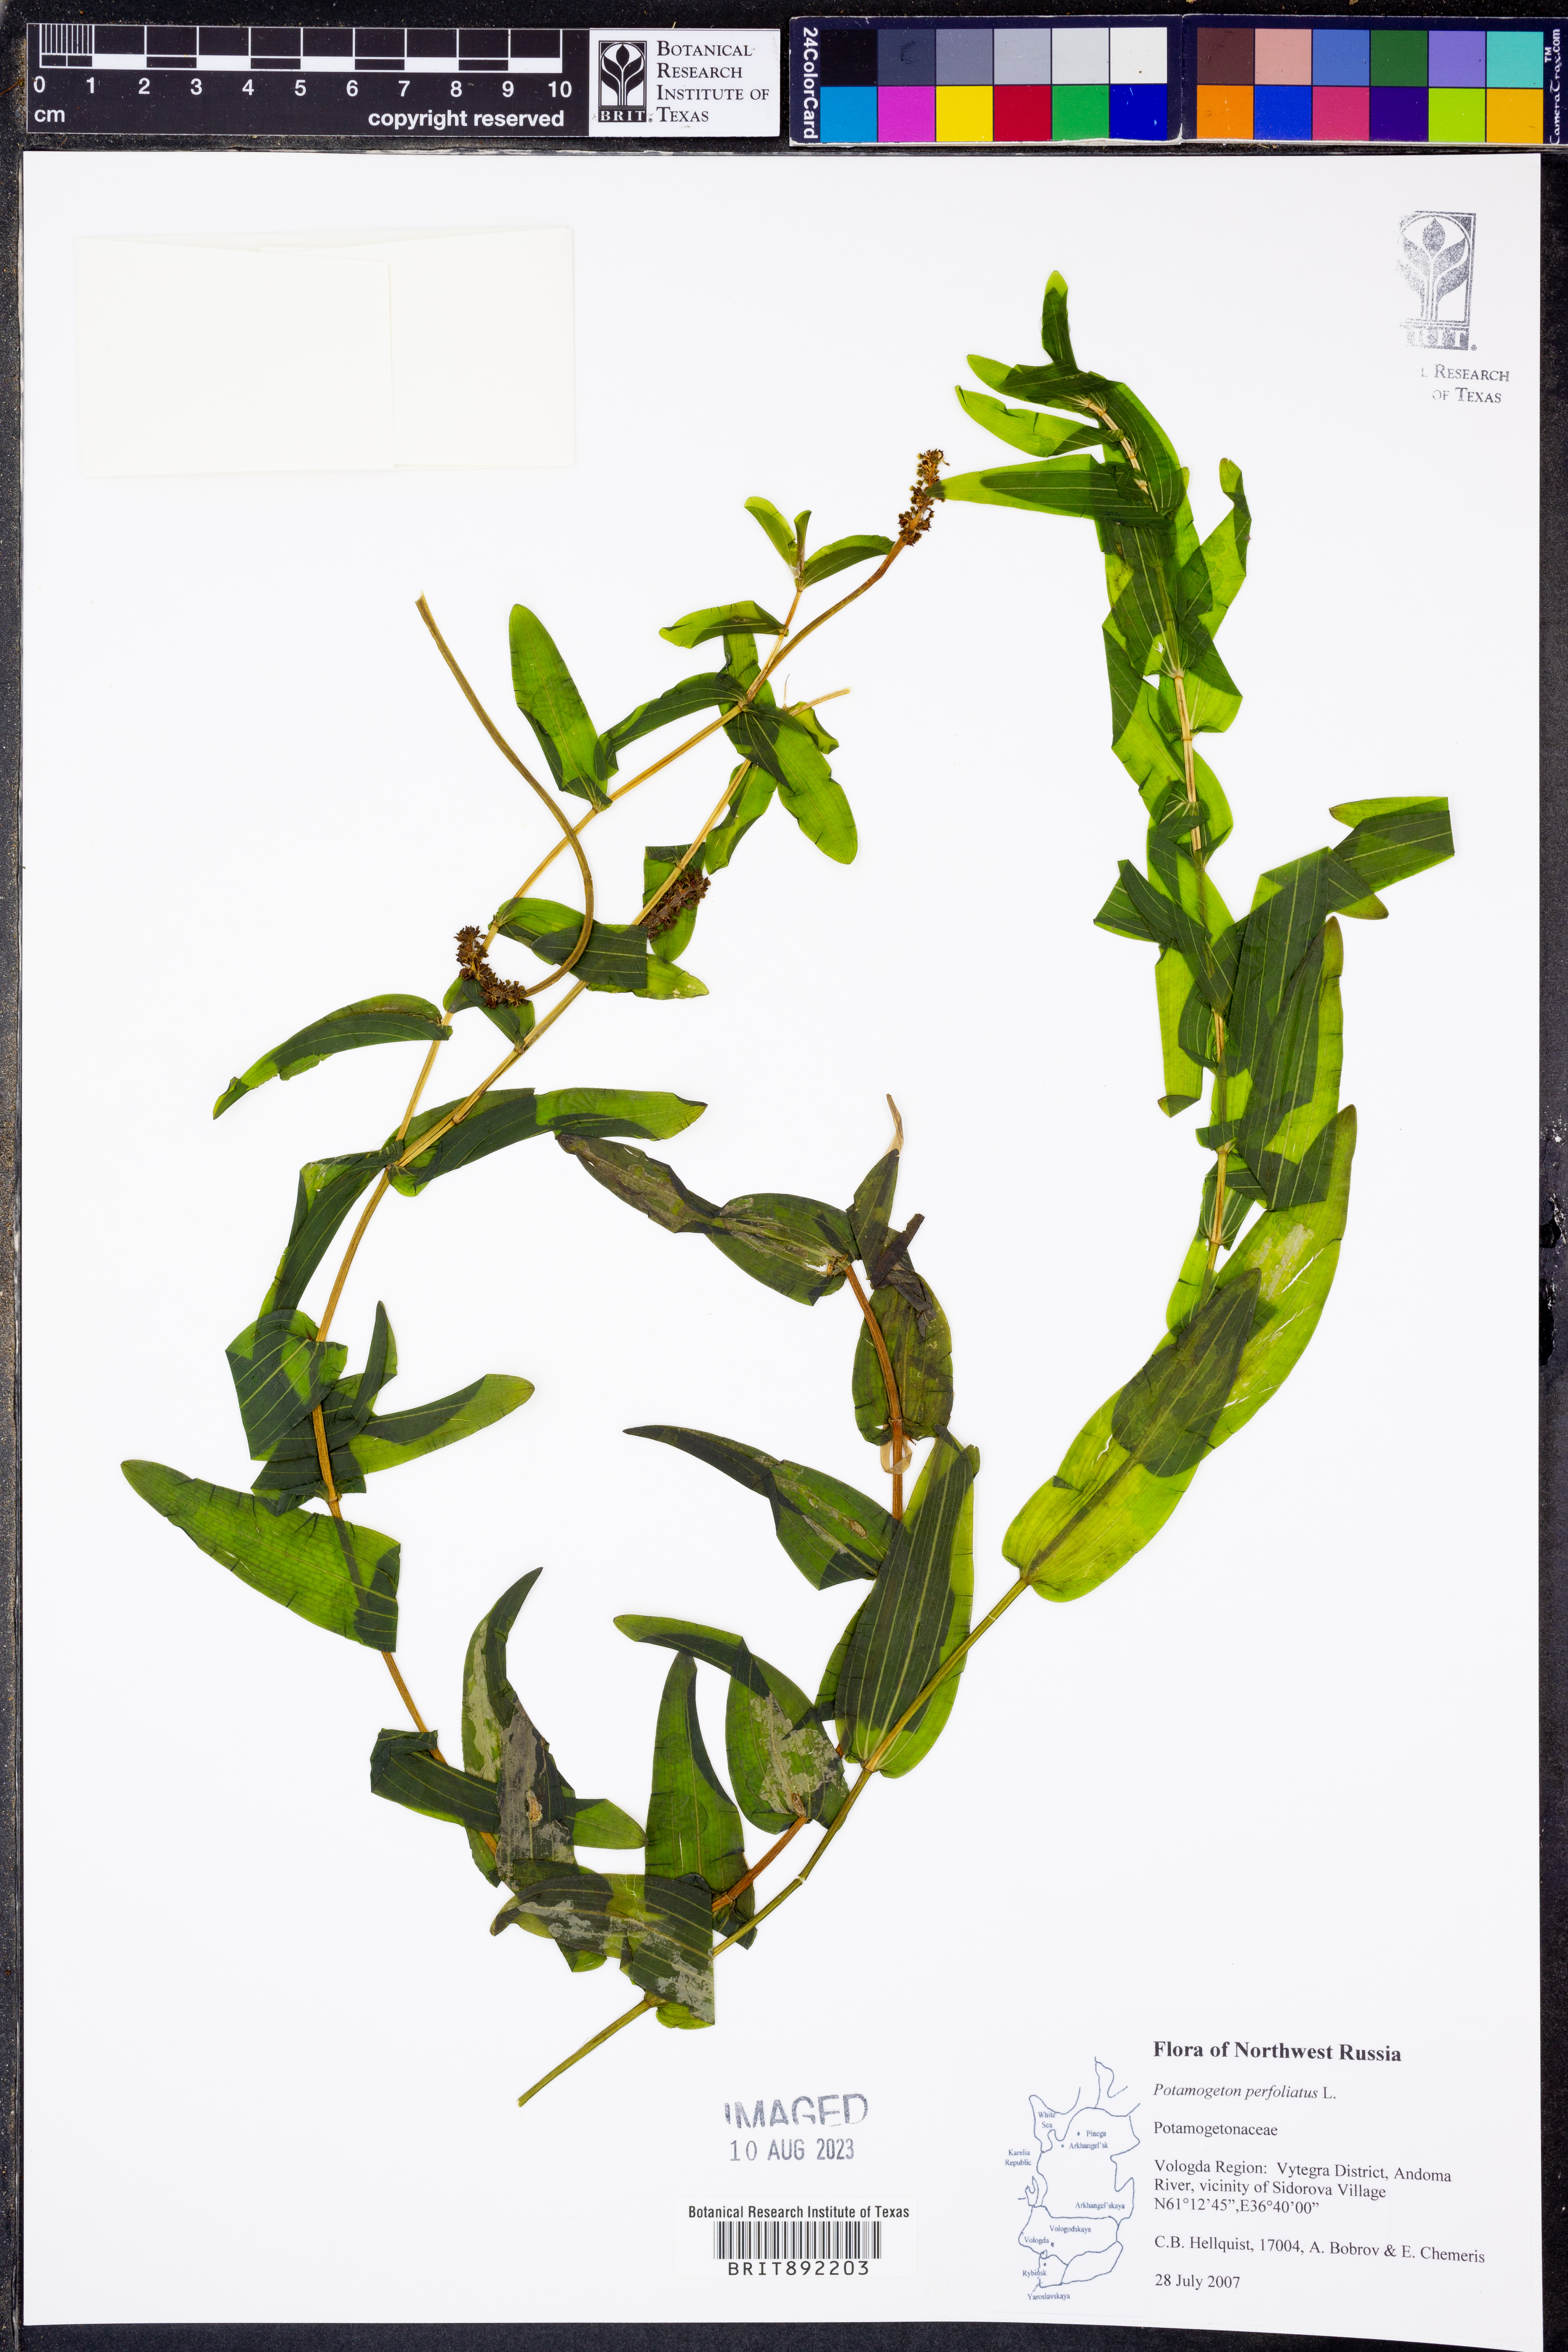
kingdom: Plantae
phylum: Tracheophyta
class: Liliopsida
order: Alismatales
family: Potamogetonaceae
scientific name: Potamogetonaceae
